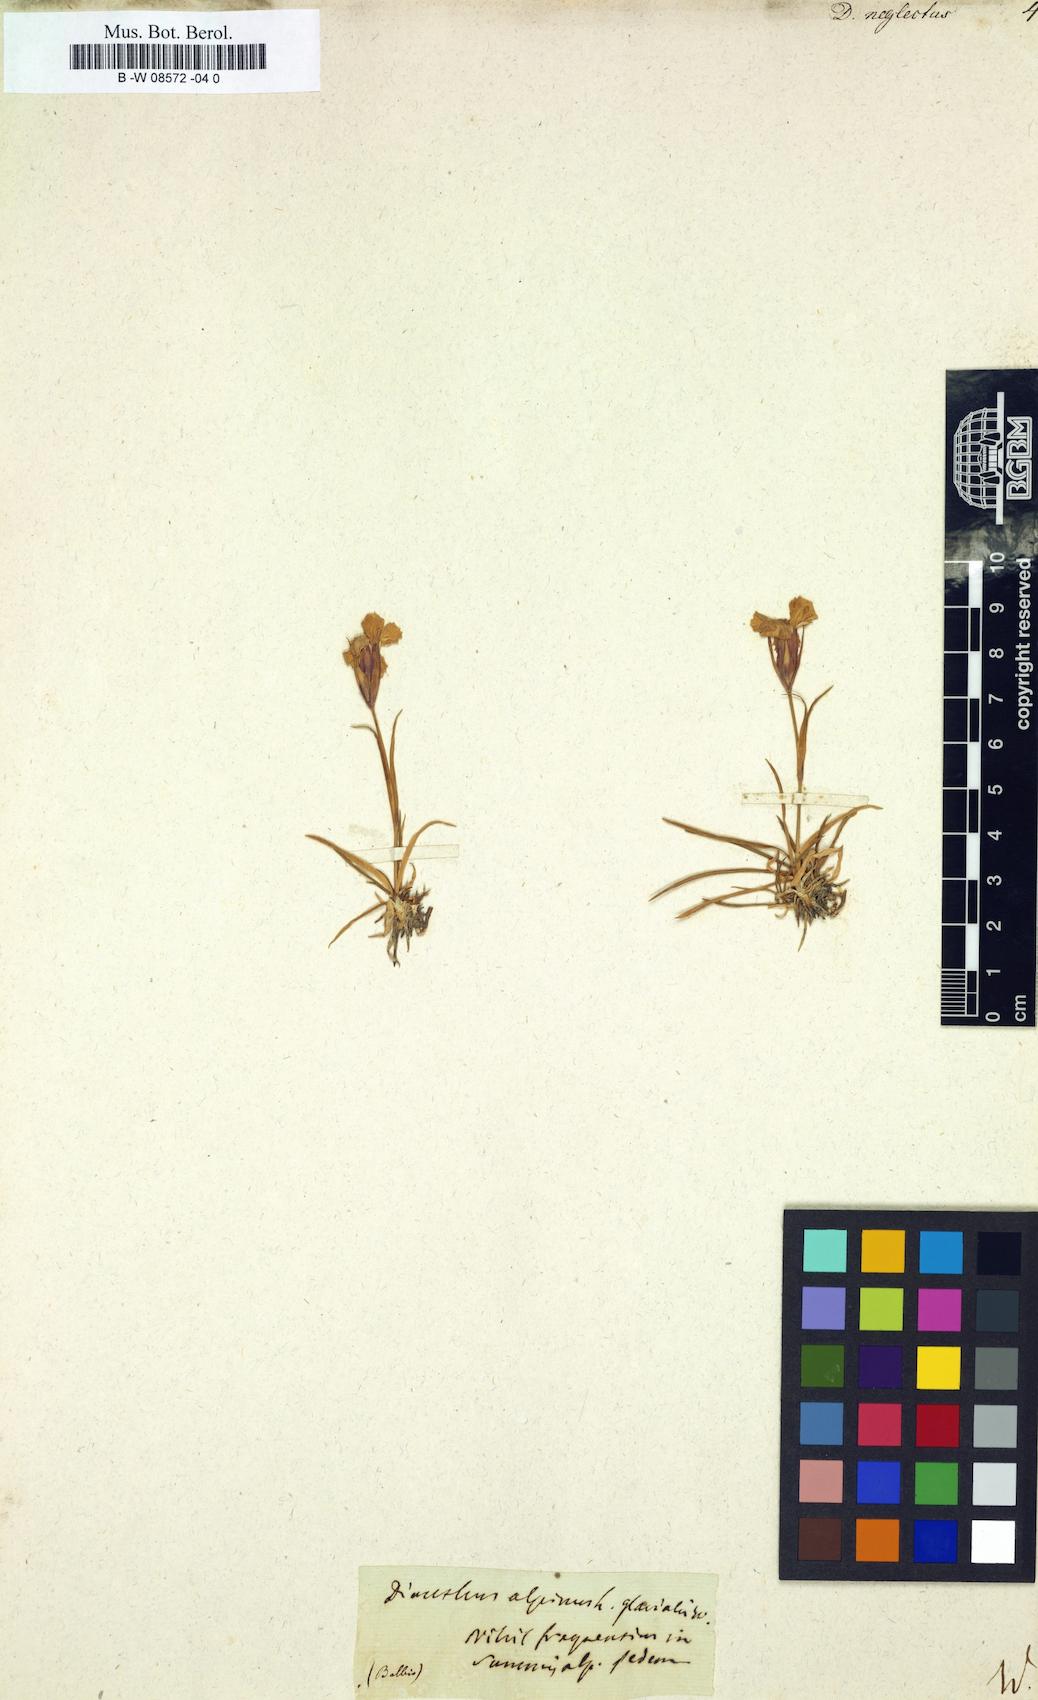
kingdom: Plantae
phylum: Tracheophyta
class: Magnoliopsida
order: Caryophyllales
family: Caryophyllaceae
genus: Dianthus
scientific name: Dianthus seguieri
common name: Ragged pink
